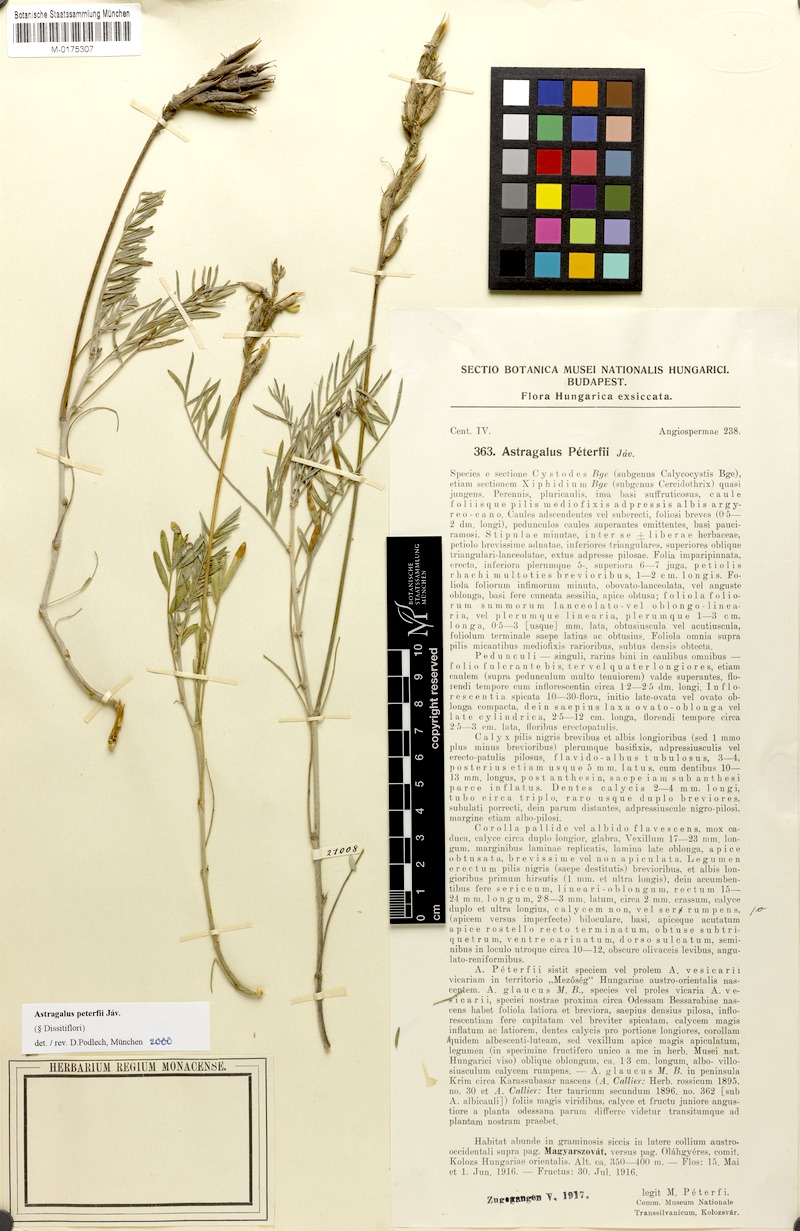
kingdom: Plantae
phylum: Tracheophyta
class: Magnoliopsida
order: Fabales
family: Fabaceae
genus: Astragalus
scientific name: Astragalus peterfii
